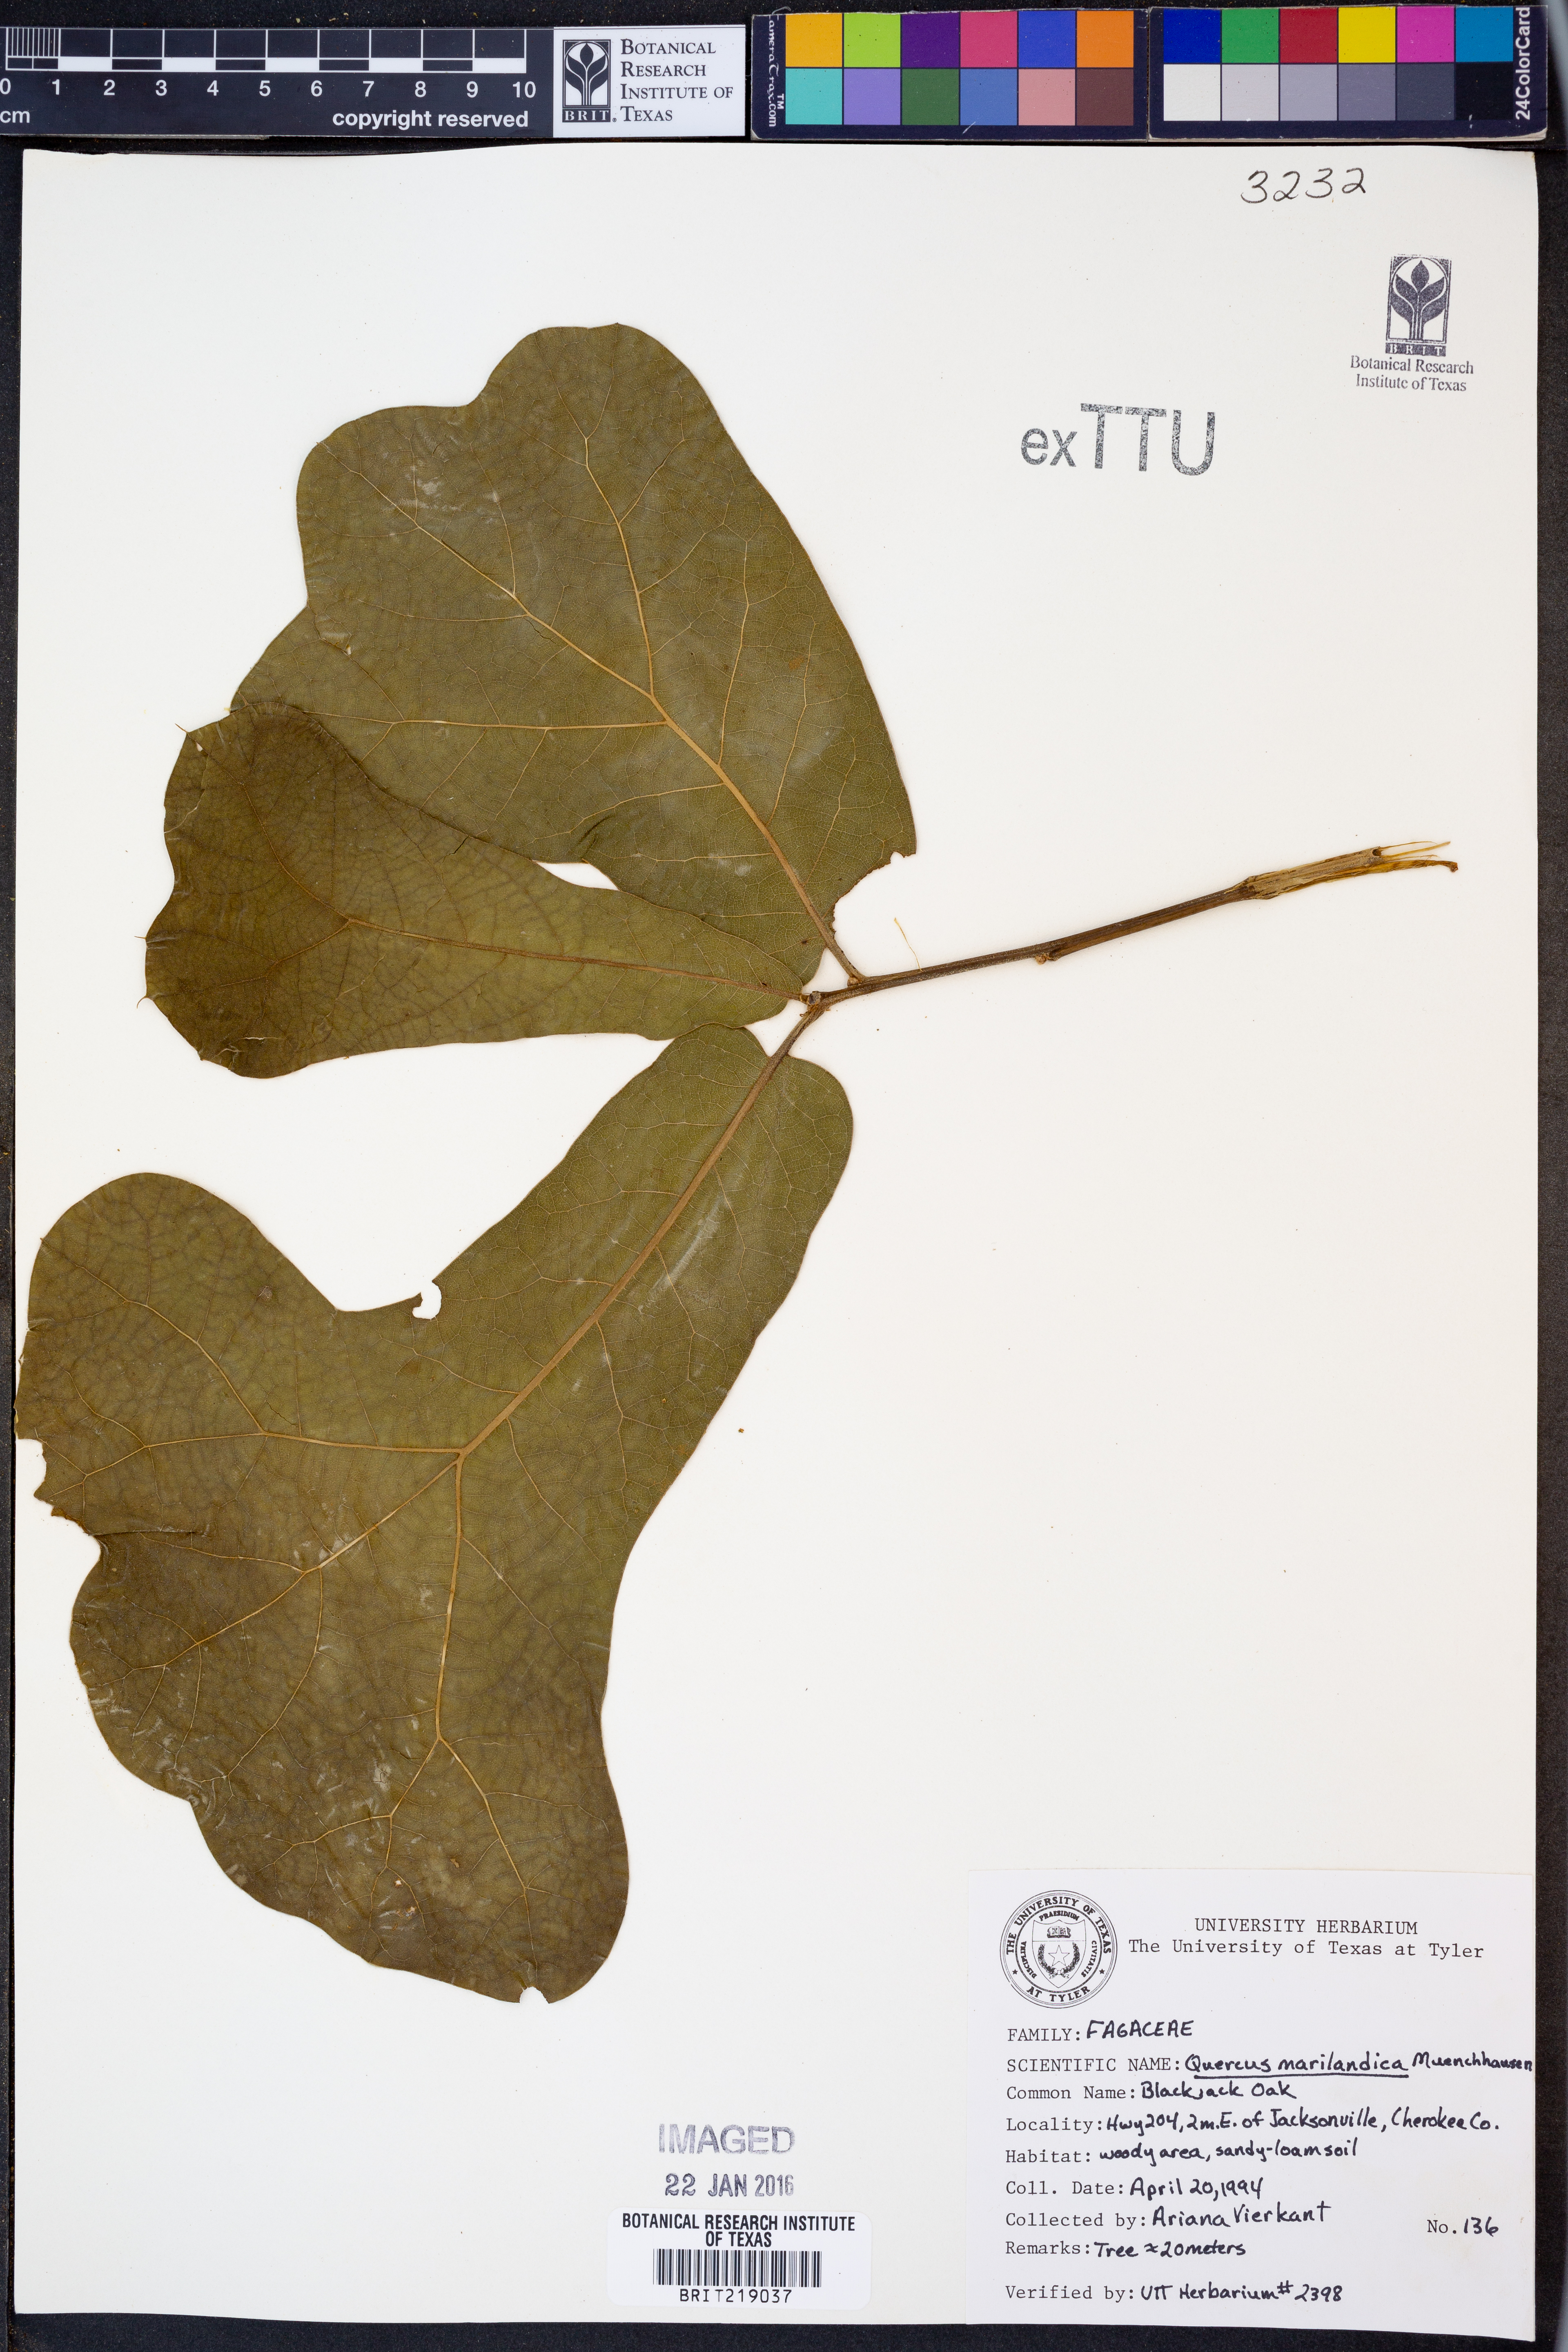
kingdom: Plantae
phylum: Tracheophyta
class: Magnoliopsida
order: Fagales
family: Fagaceae
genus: Quercus
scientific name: Quercus marilandica
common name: Blackjack oak
